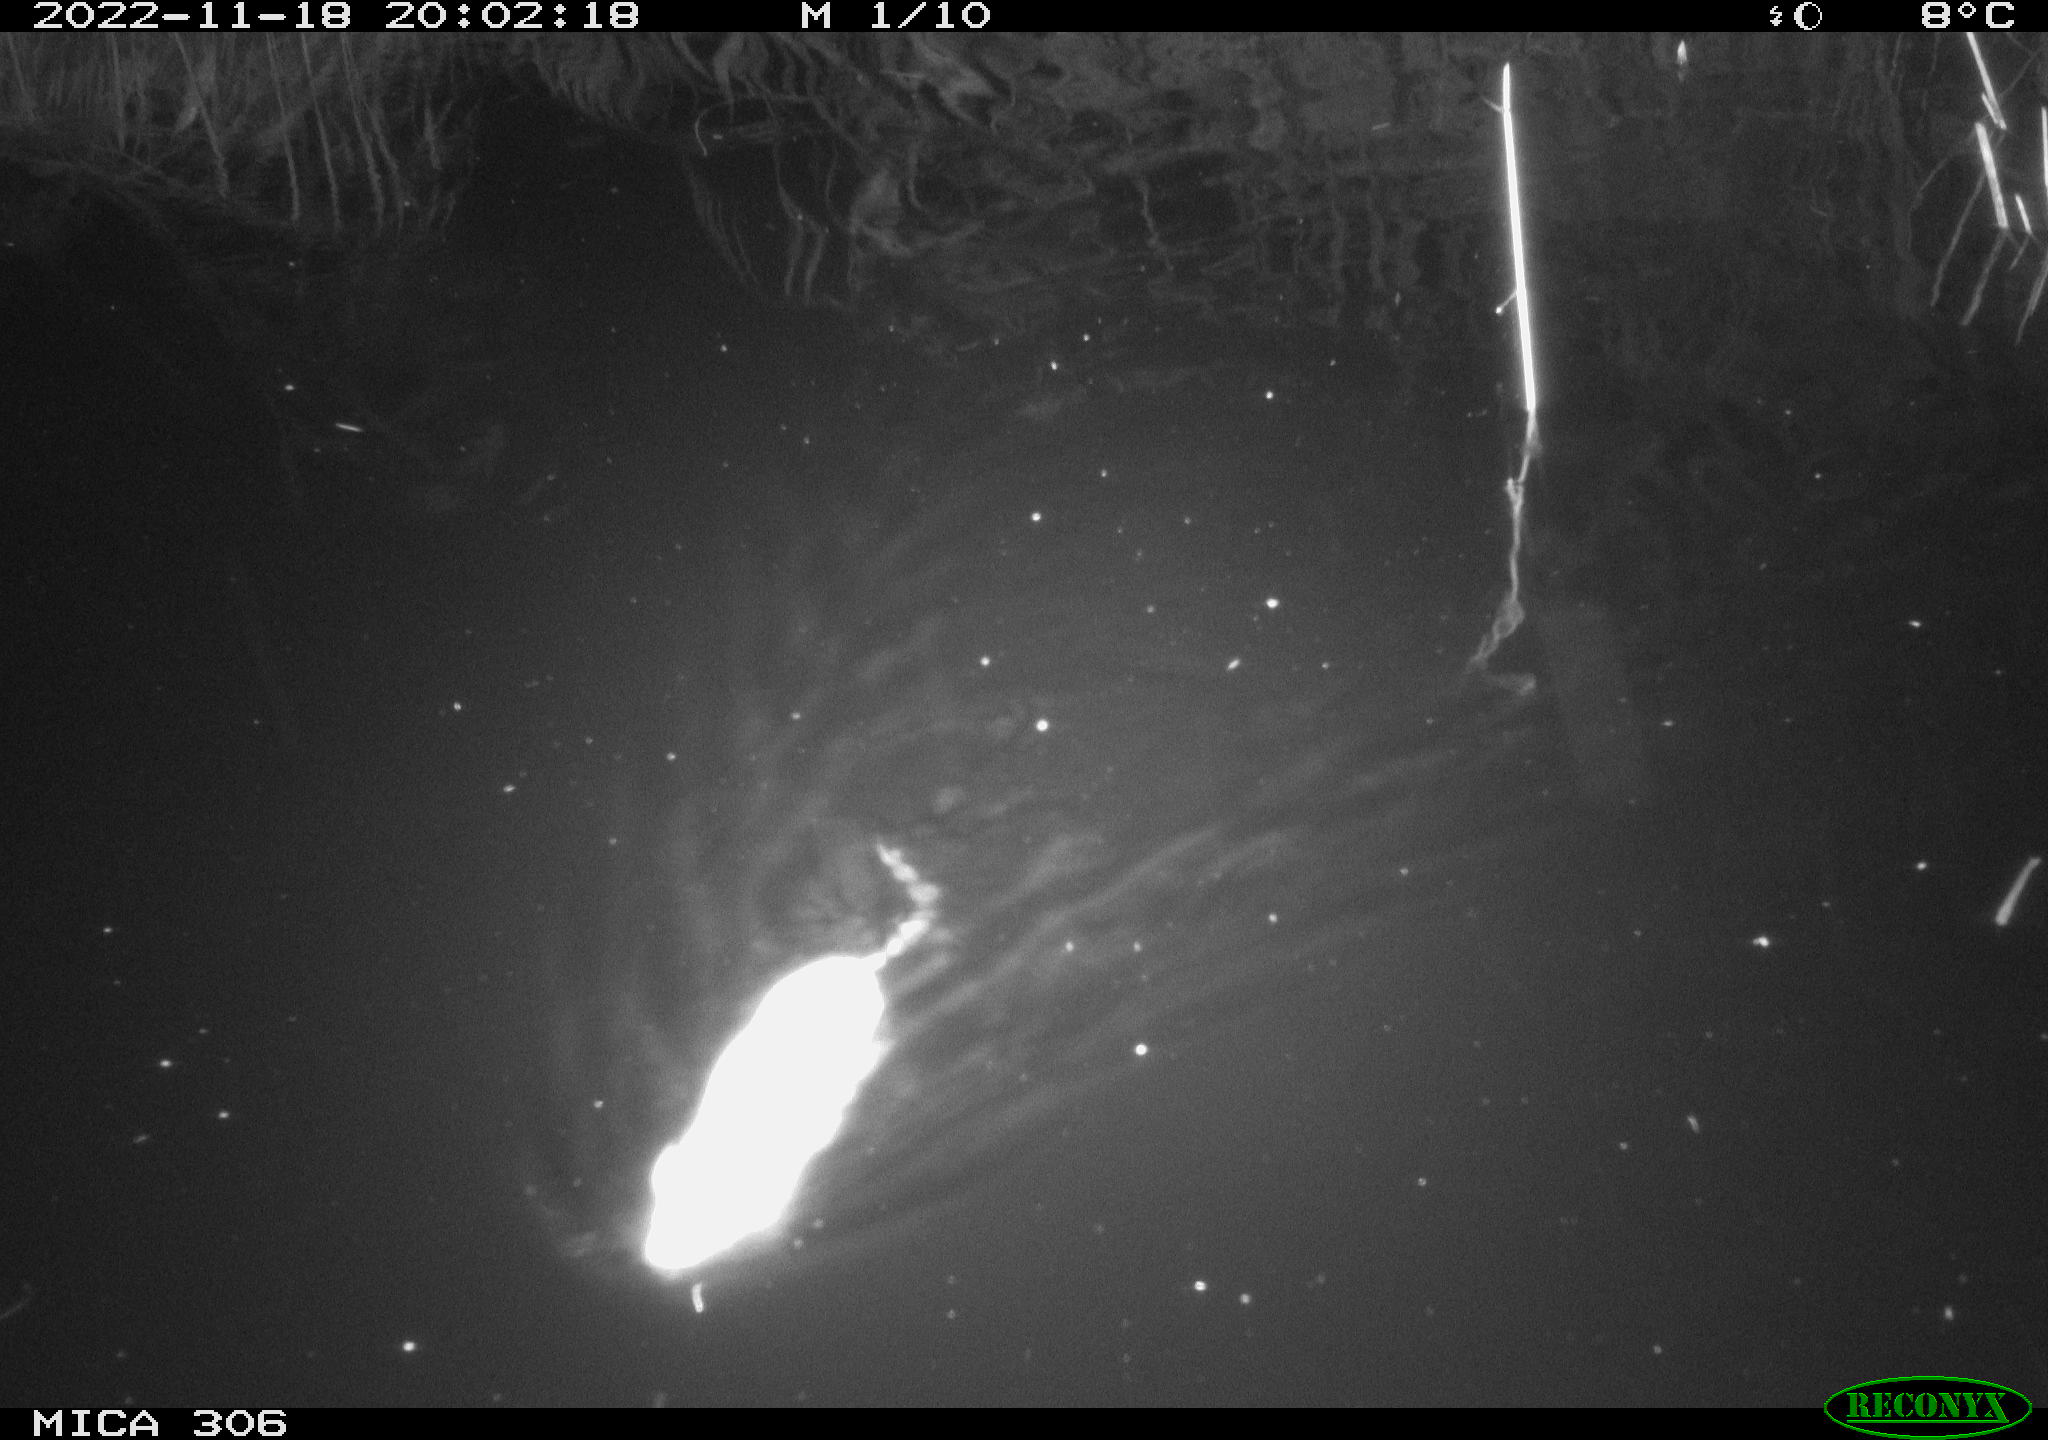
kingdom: Animalia
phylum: Chordata
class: Mammalia
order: Rodentia
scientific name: Rodentia
